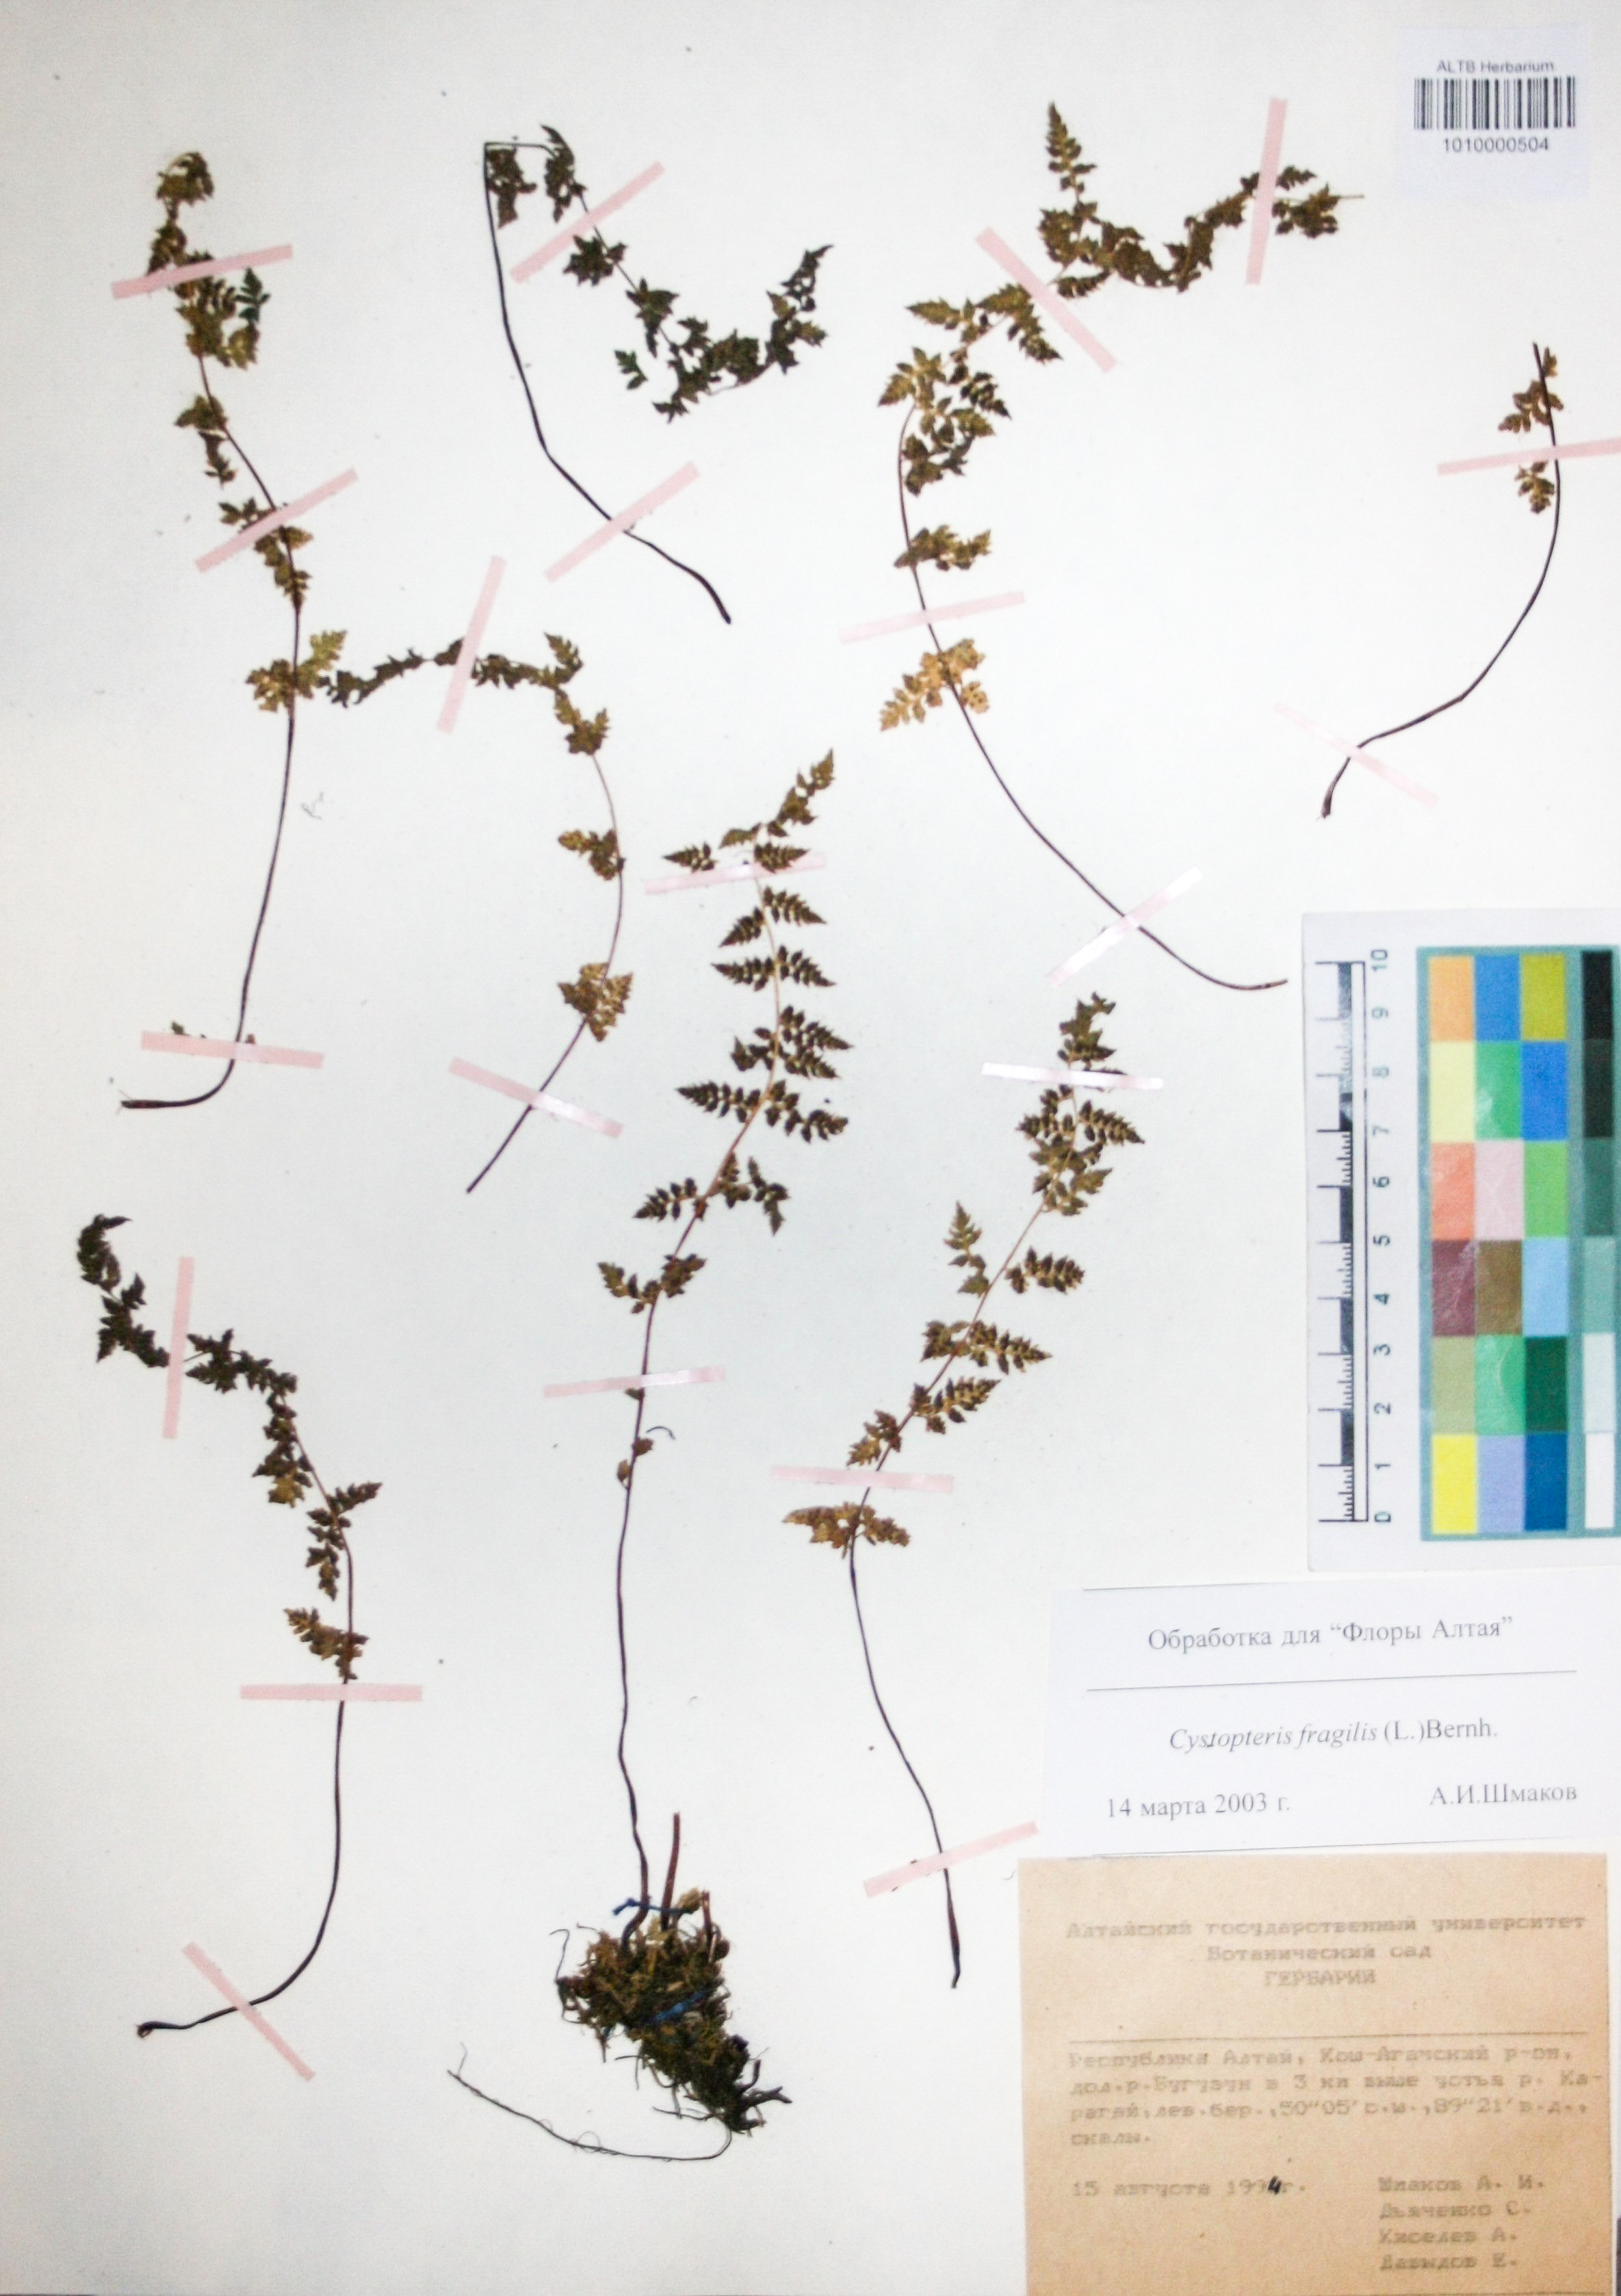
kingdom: Plantae
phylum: Tracheophyta
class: Polypodiopsida
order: Polypodiales
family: Cystopteridaceae
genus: Cystopteris
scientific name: Cystopteris fragilis
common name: Brittle bladder fern
